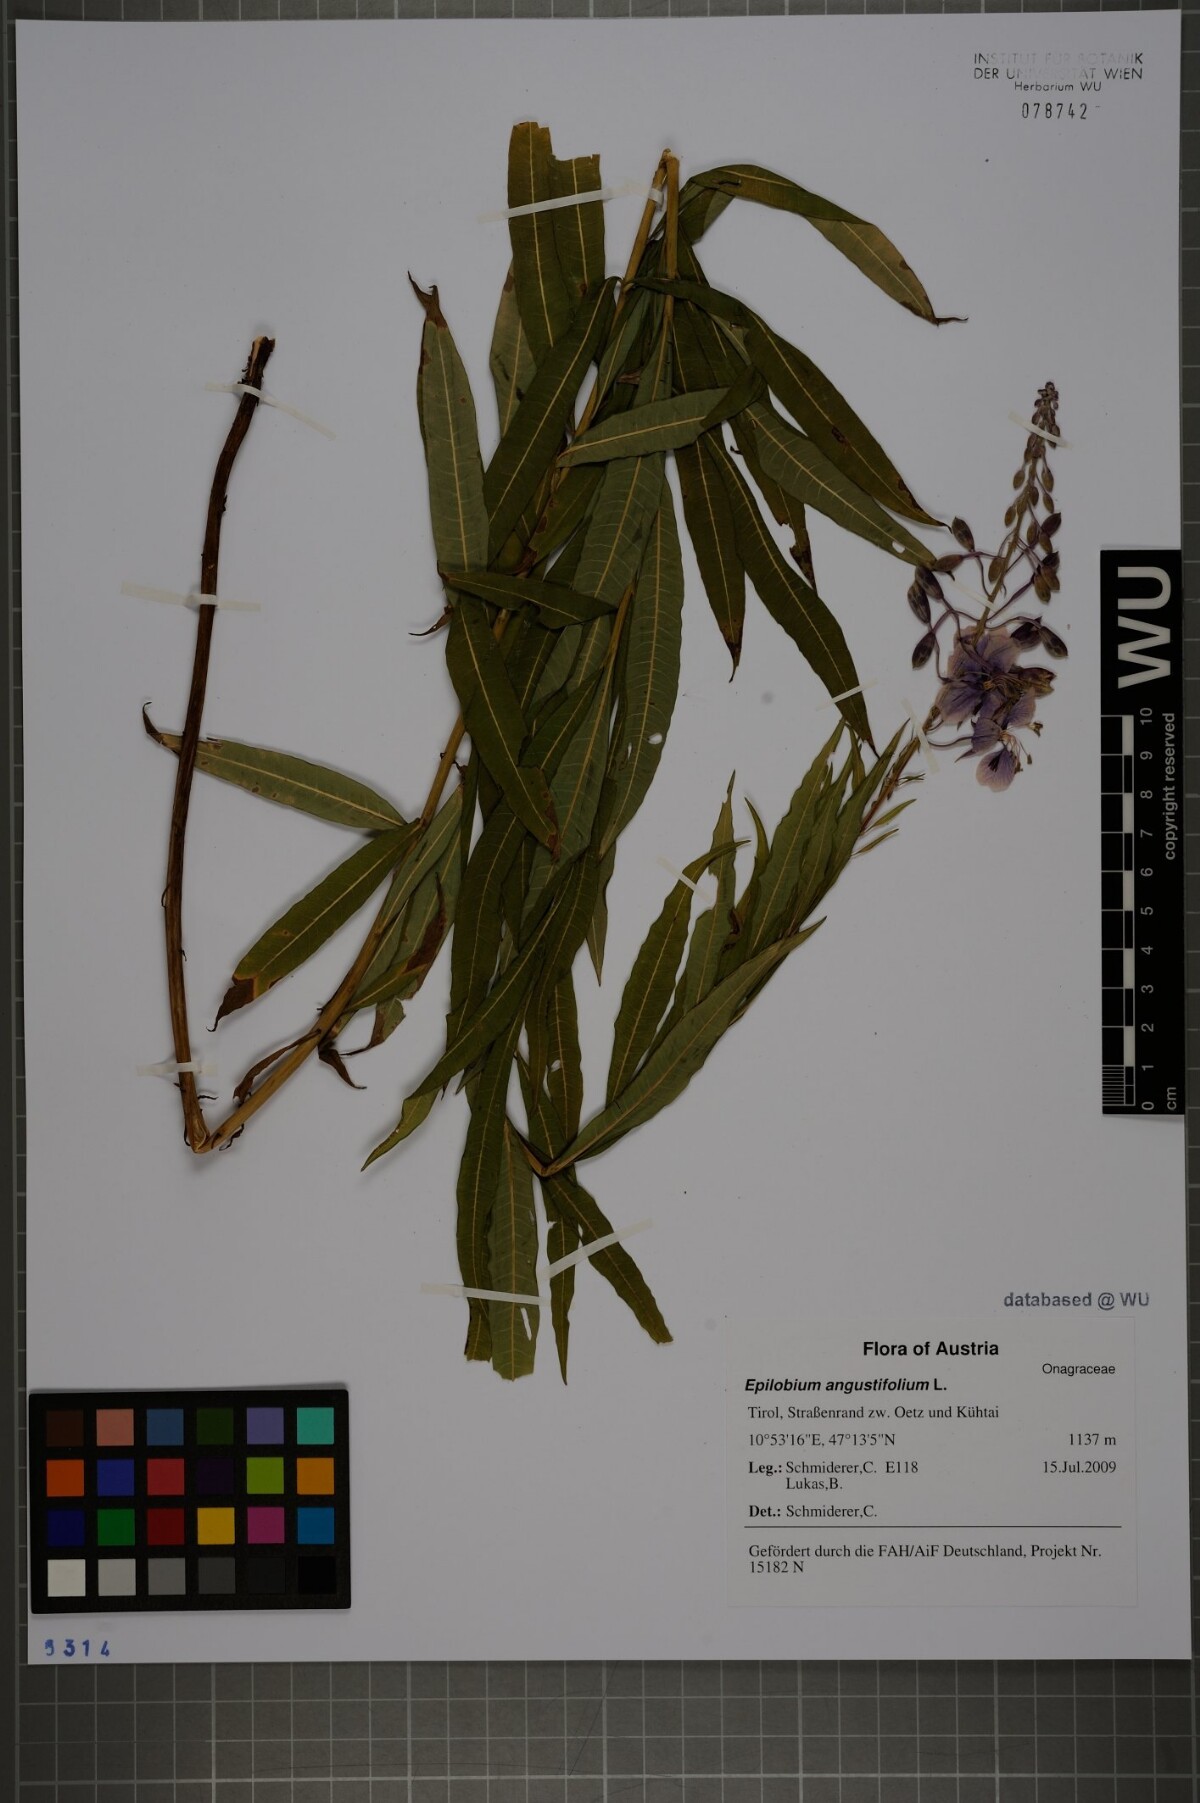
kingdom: Plantae
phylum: Tracheophyta
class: Magnoliopsida
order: Myrtales
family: Onagraceae
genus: Chamaenerion
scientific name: Chamaenerion angustifolium
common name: Fireweed
